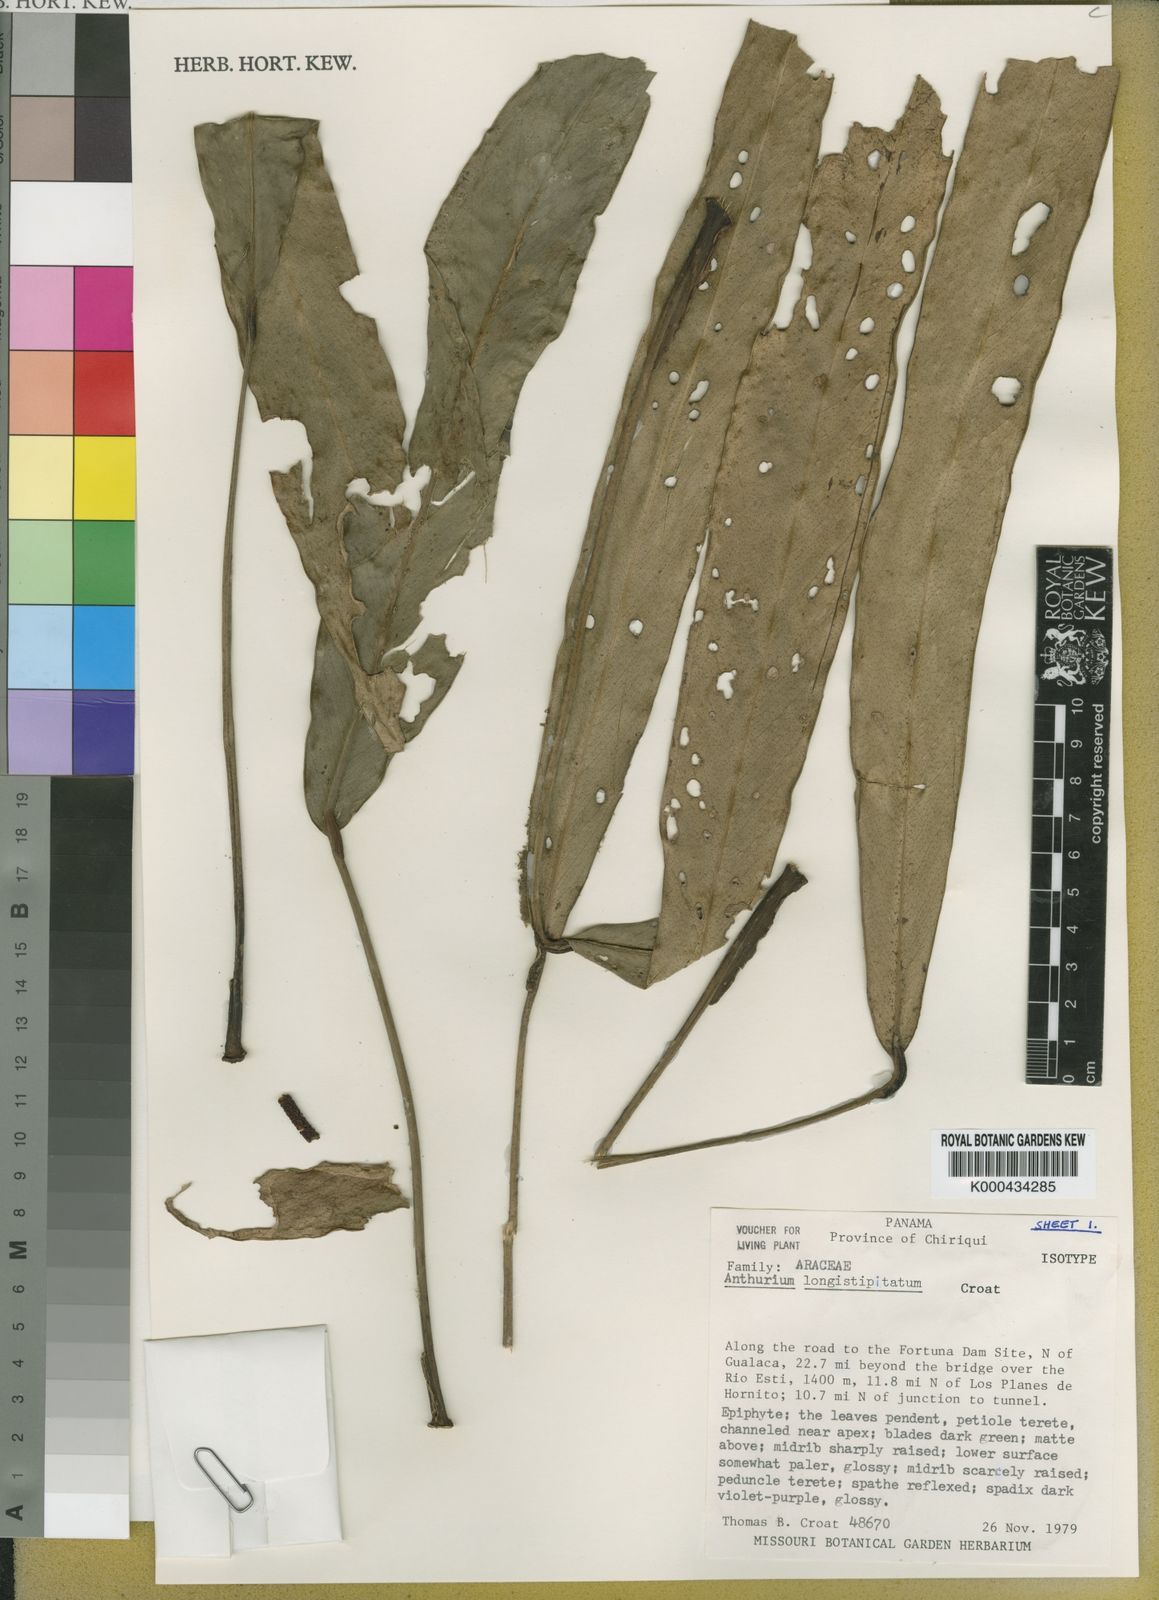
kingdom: Plantae
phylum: Tracheophyta
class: Liliopsida
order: Alismatales
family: Araceae
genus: Anthurium
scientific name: Anthurium longistipitatum
